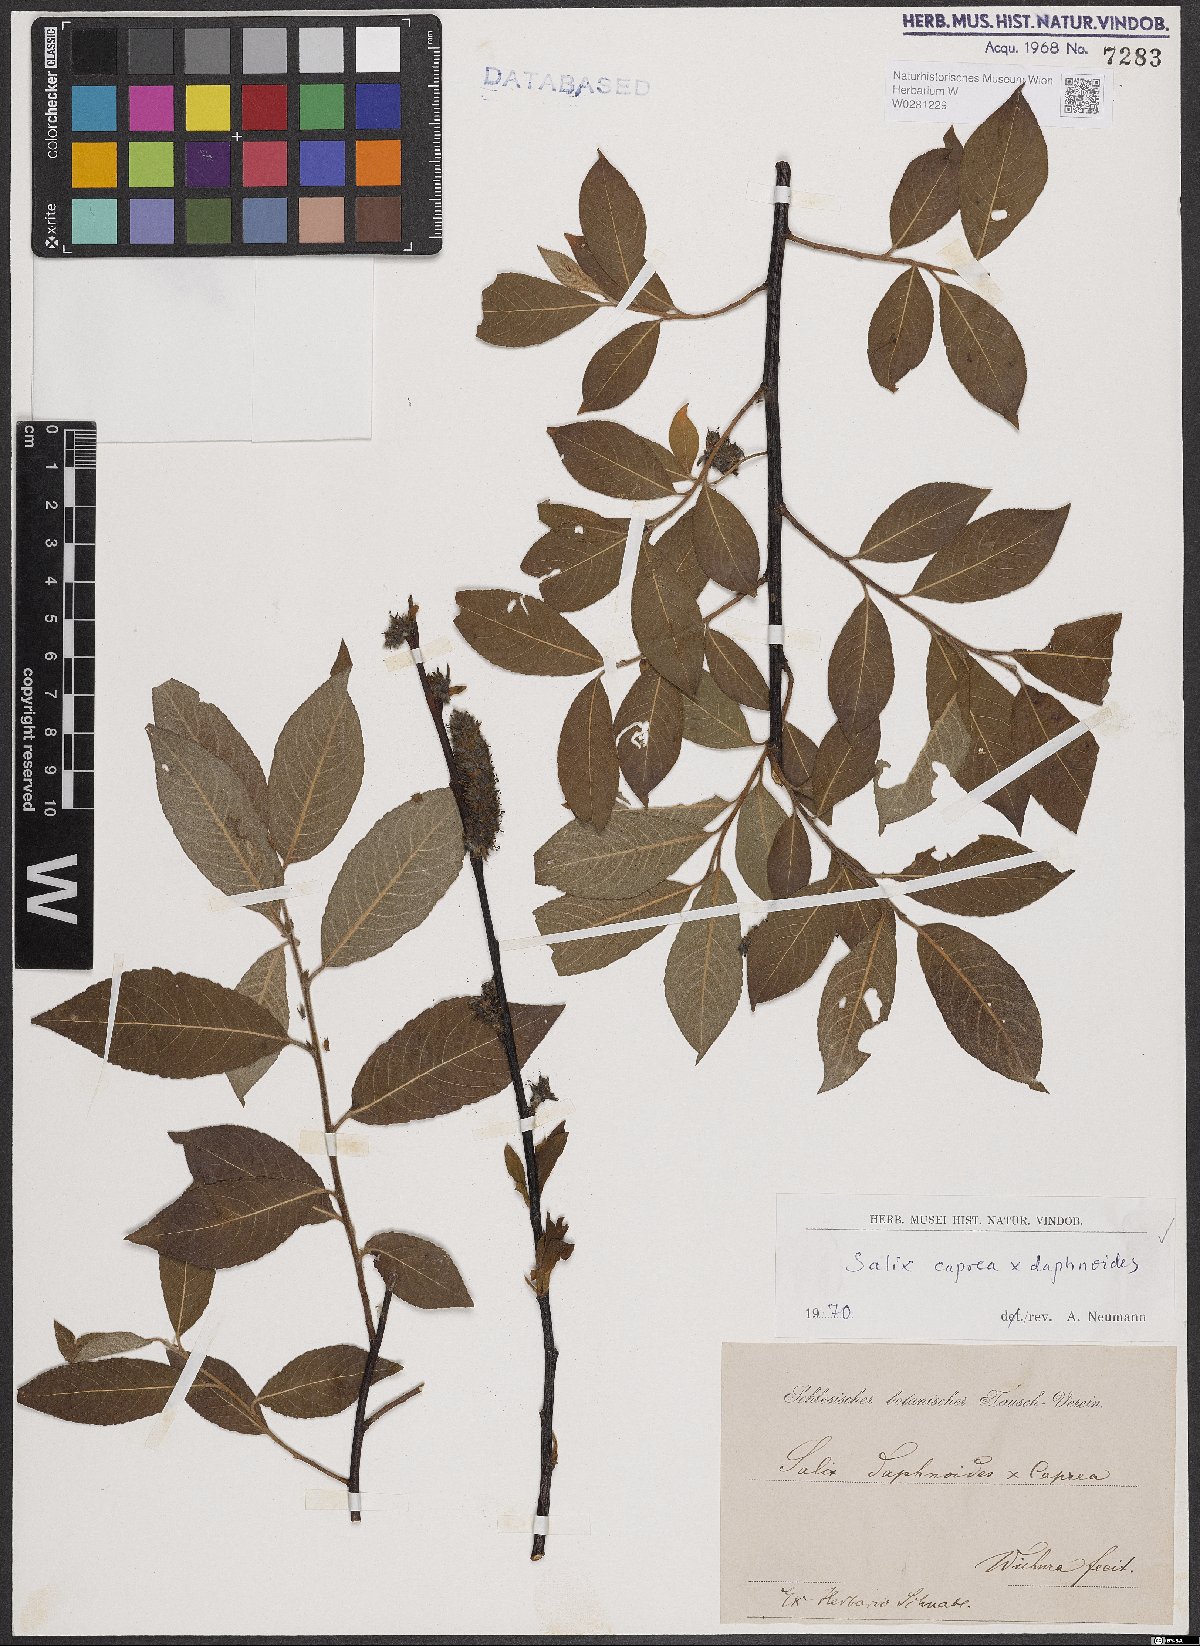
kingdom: Plantae
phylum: Tracheophyta
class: Magnoliopsida
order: Malpighiales
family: Salicaceae
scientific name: Salicaceae
